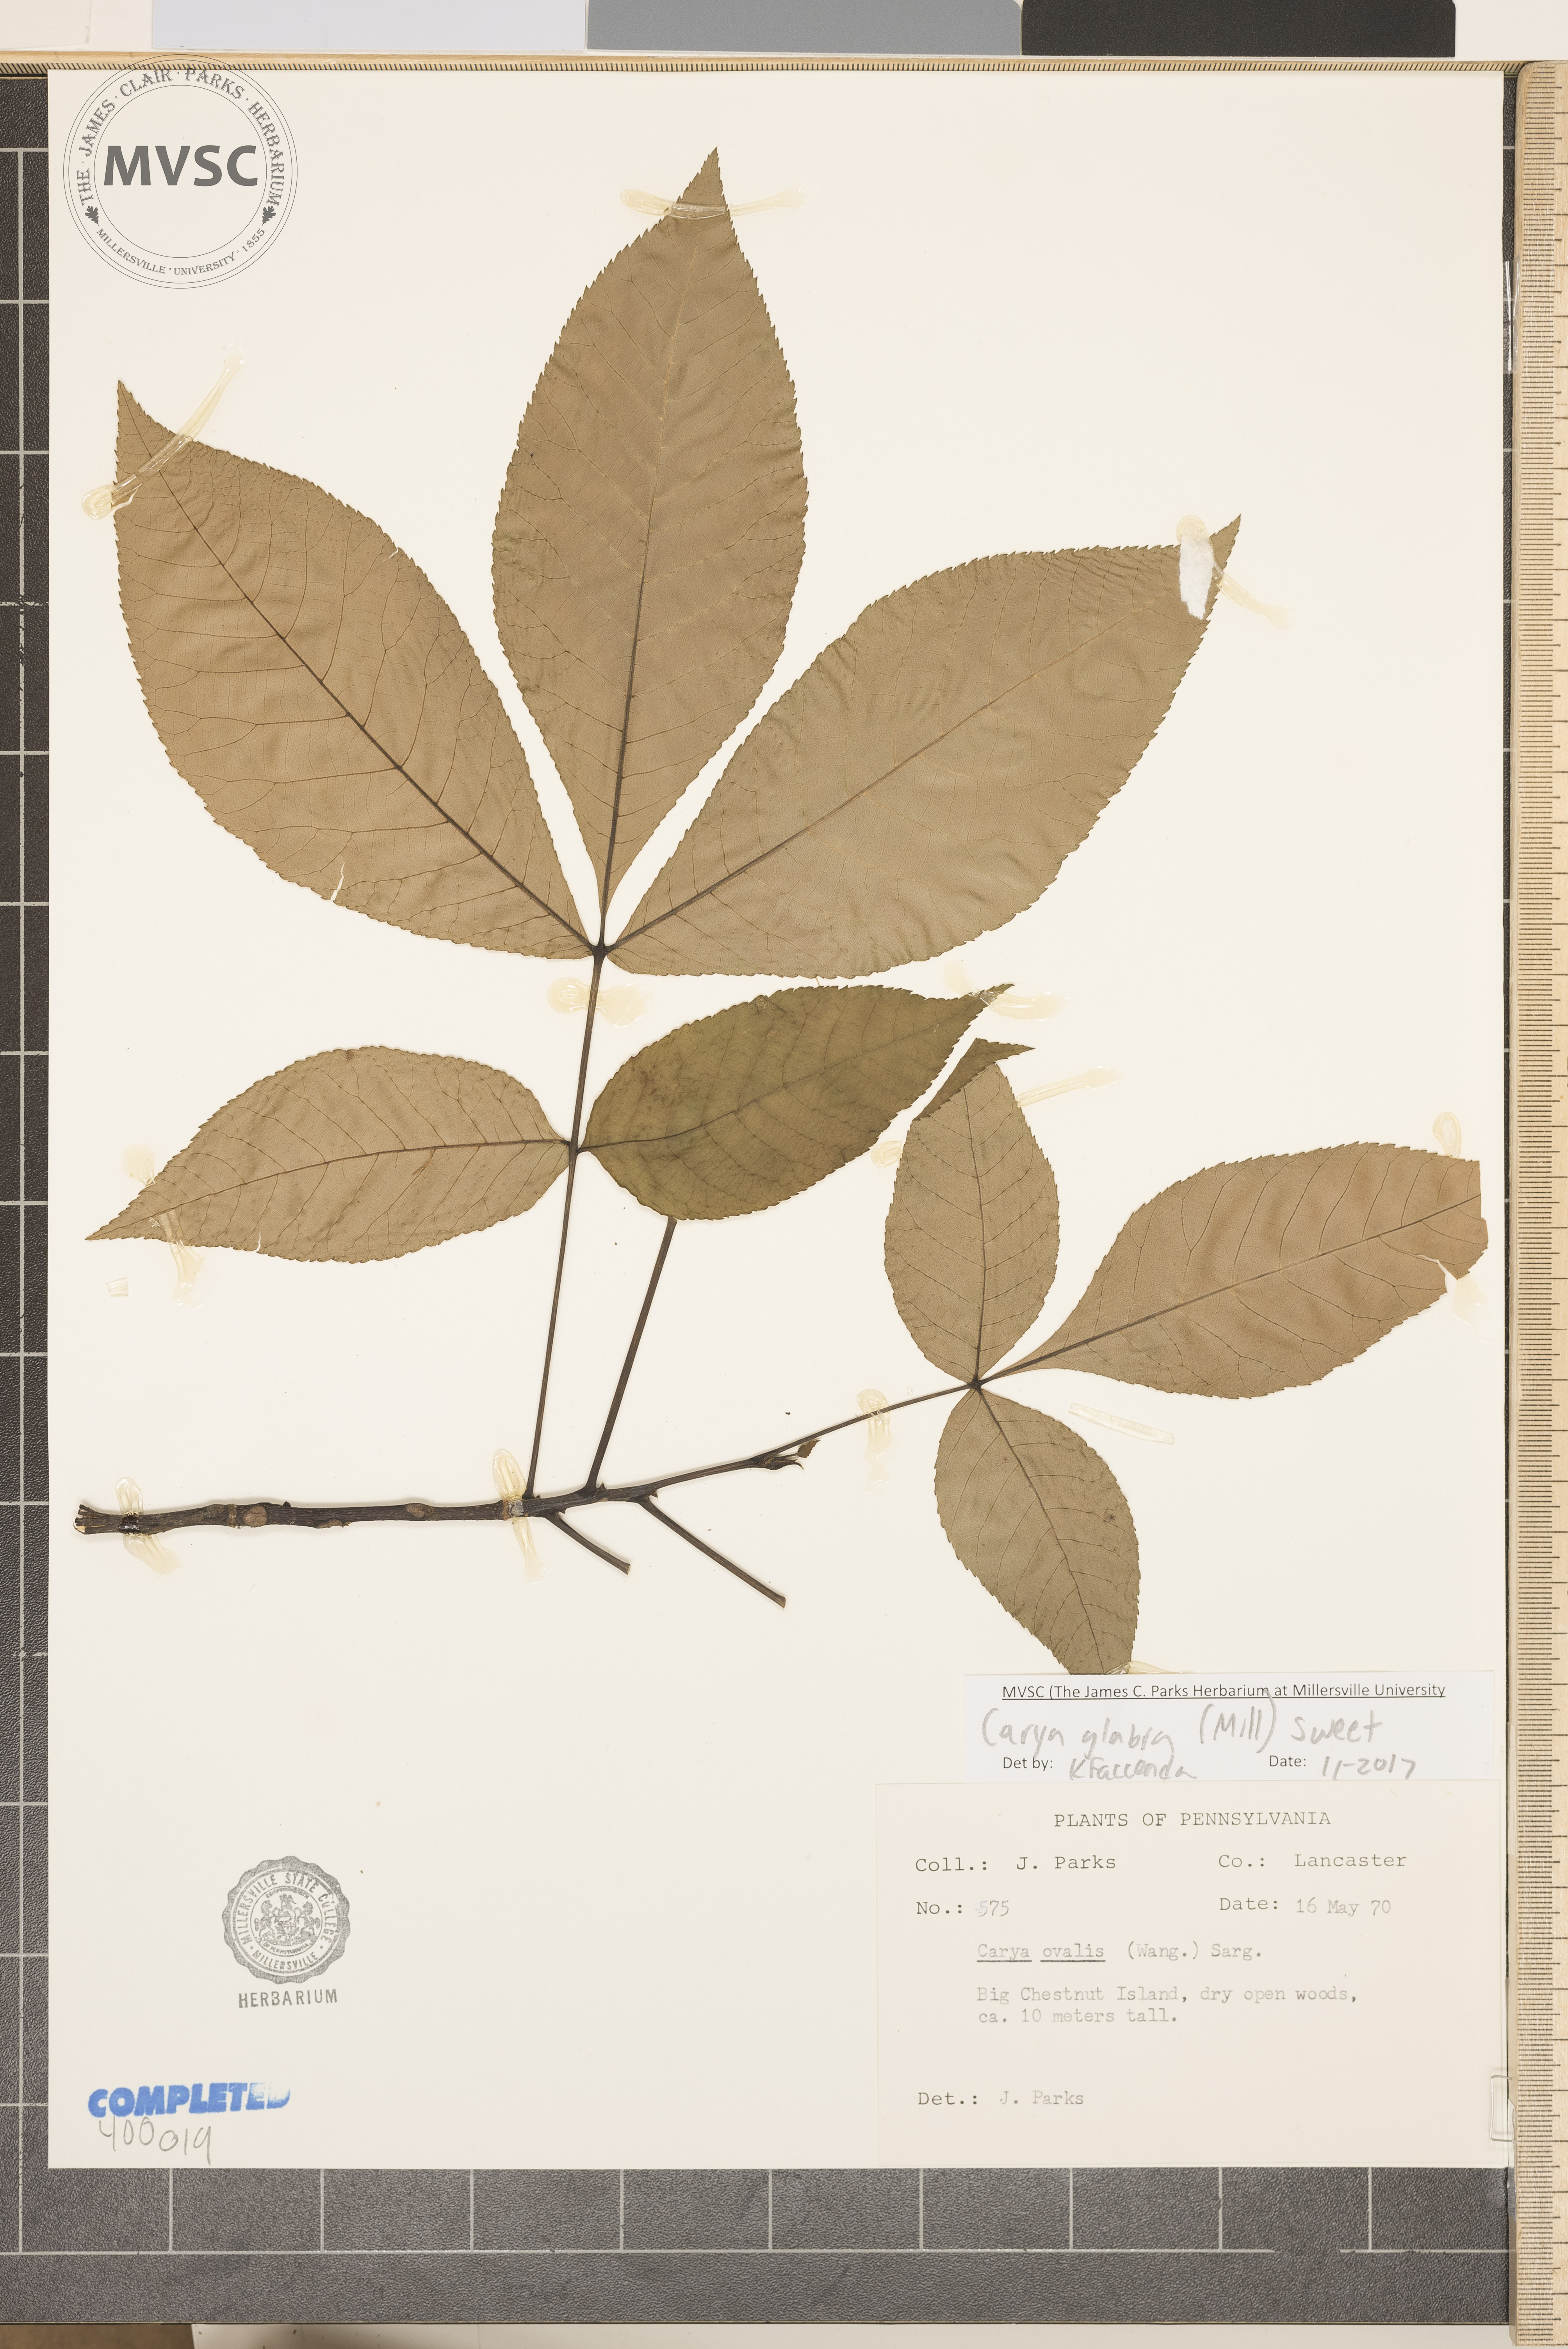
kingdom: Plantae
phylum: Tracheophyta
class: Magnoliopsida
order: Fagales
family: Juglandaceae
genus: Carya
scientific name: Carya glabra
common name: red hickory
